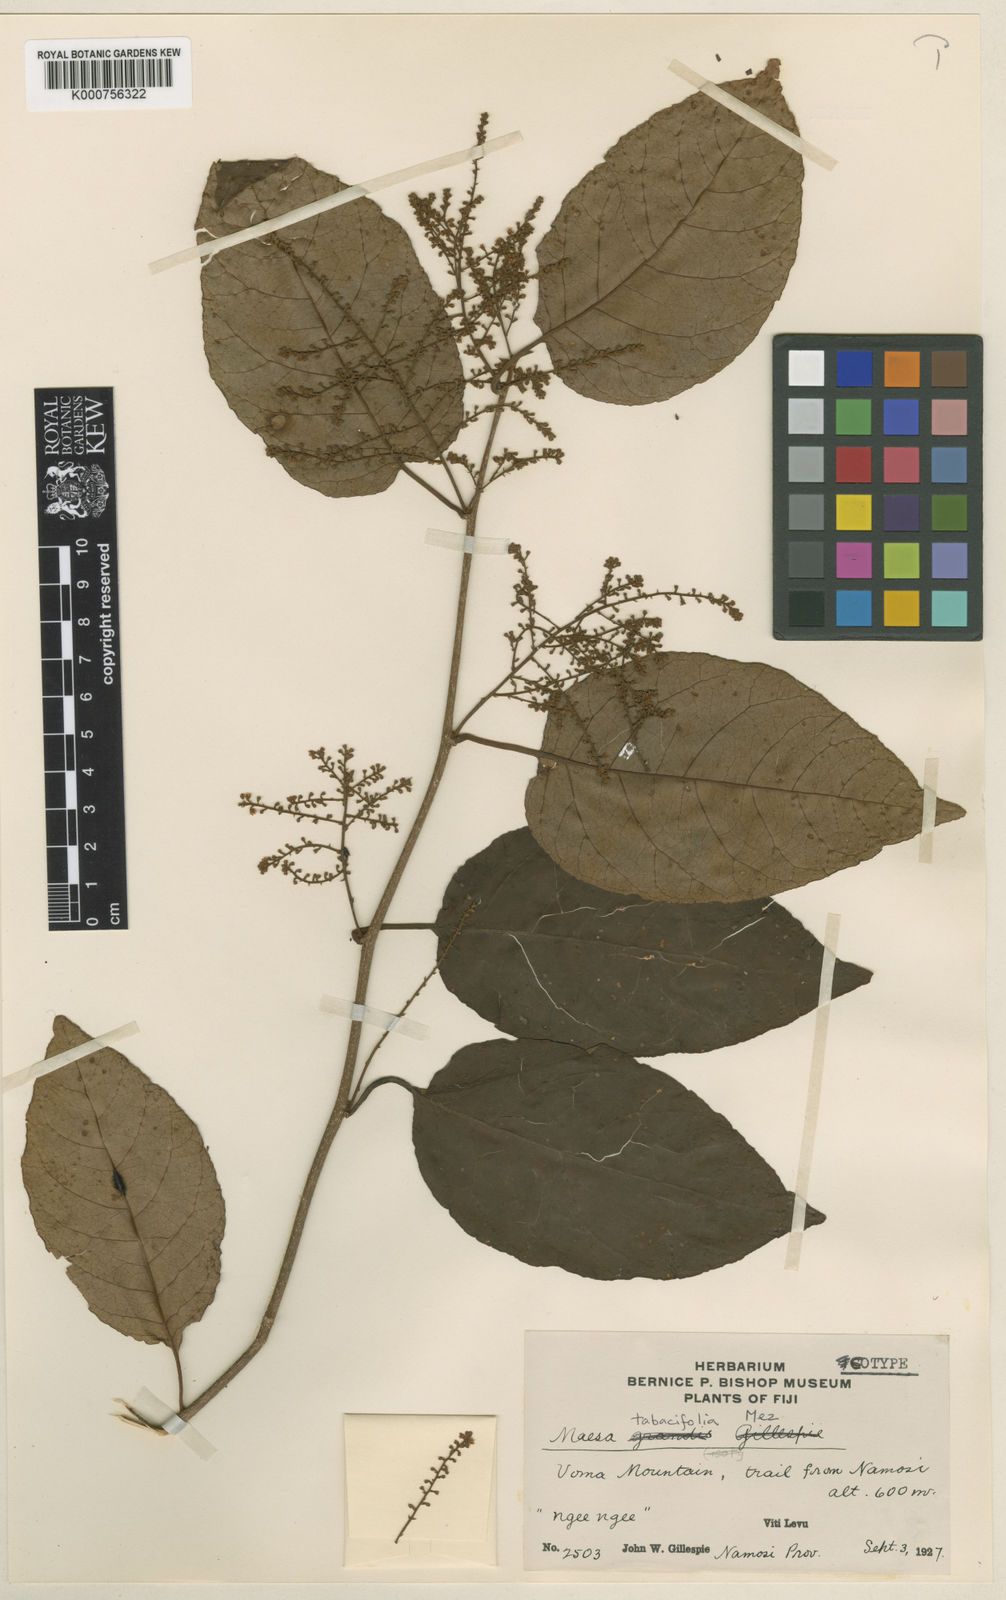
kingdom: Plantae
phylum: Tracheophyta
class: Magnoliopsida
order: Ericales
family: Primulaceae
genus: Maesa
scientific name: Maesa tabacifolia
